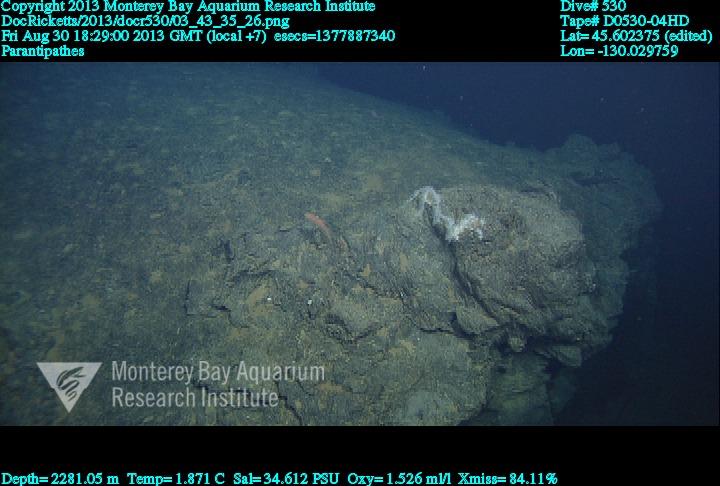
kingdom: Animalia
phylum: Cnidaria
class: Anthozoa
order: Antipatharia
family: Schizopathidae
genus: Parantipathes
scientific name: Parantipathes
